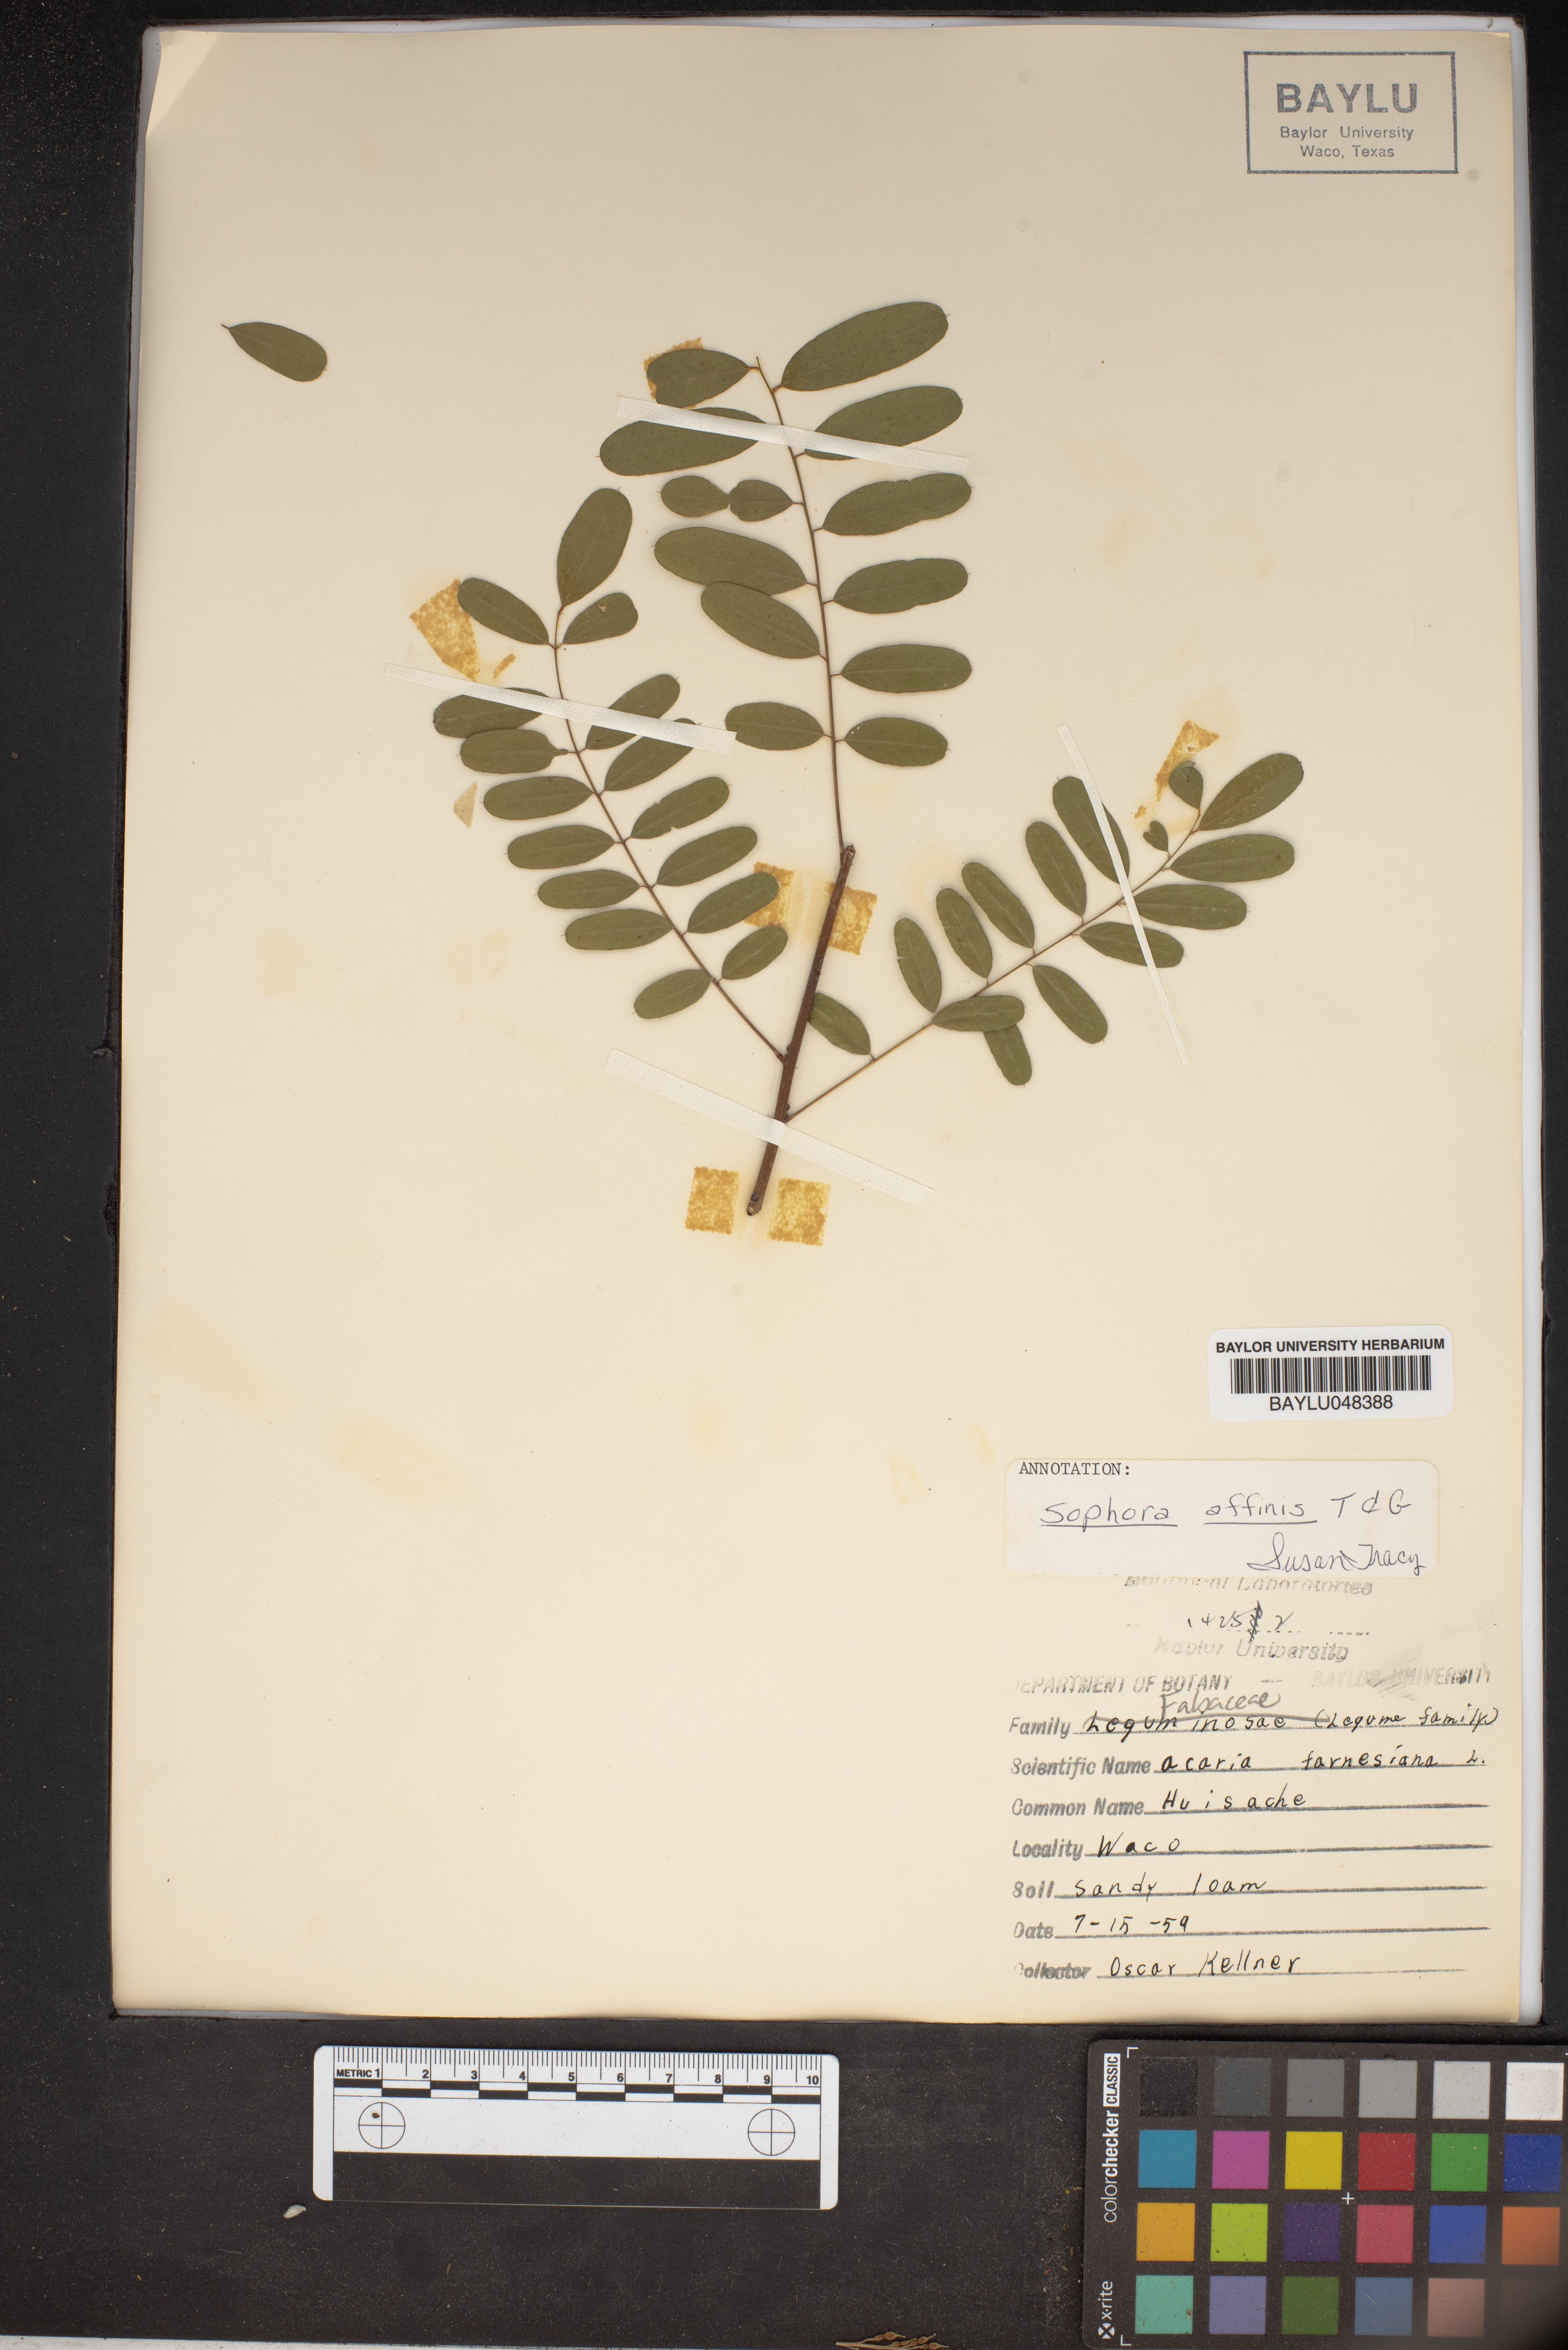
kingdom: Plantae
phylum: Tracheophyta
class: Magnoliopsida
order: Fabales
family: Fabaceae
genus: Styphnolobium
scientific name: Styphnolobium affine
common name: Texas sophora
